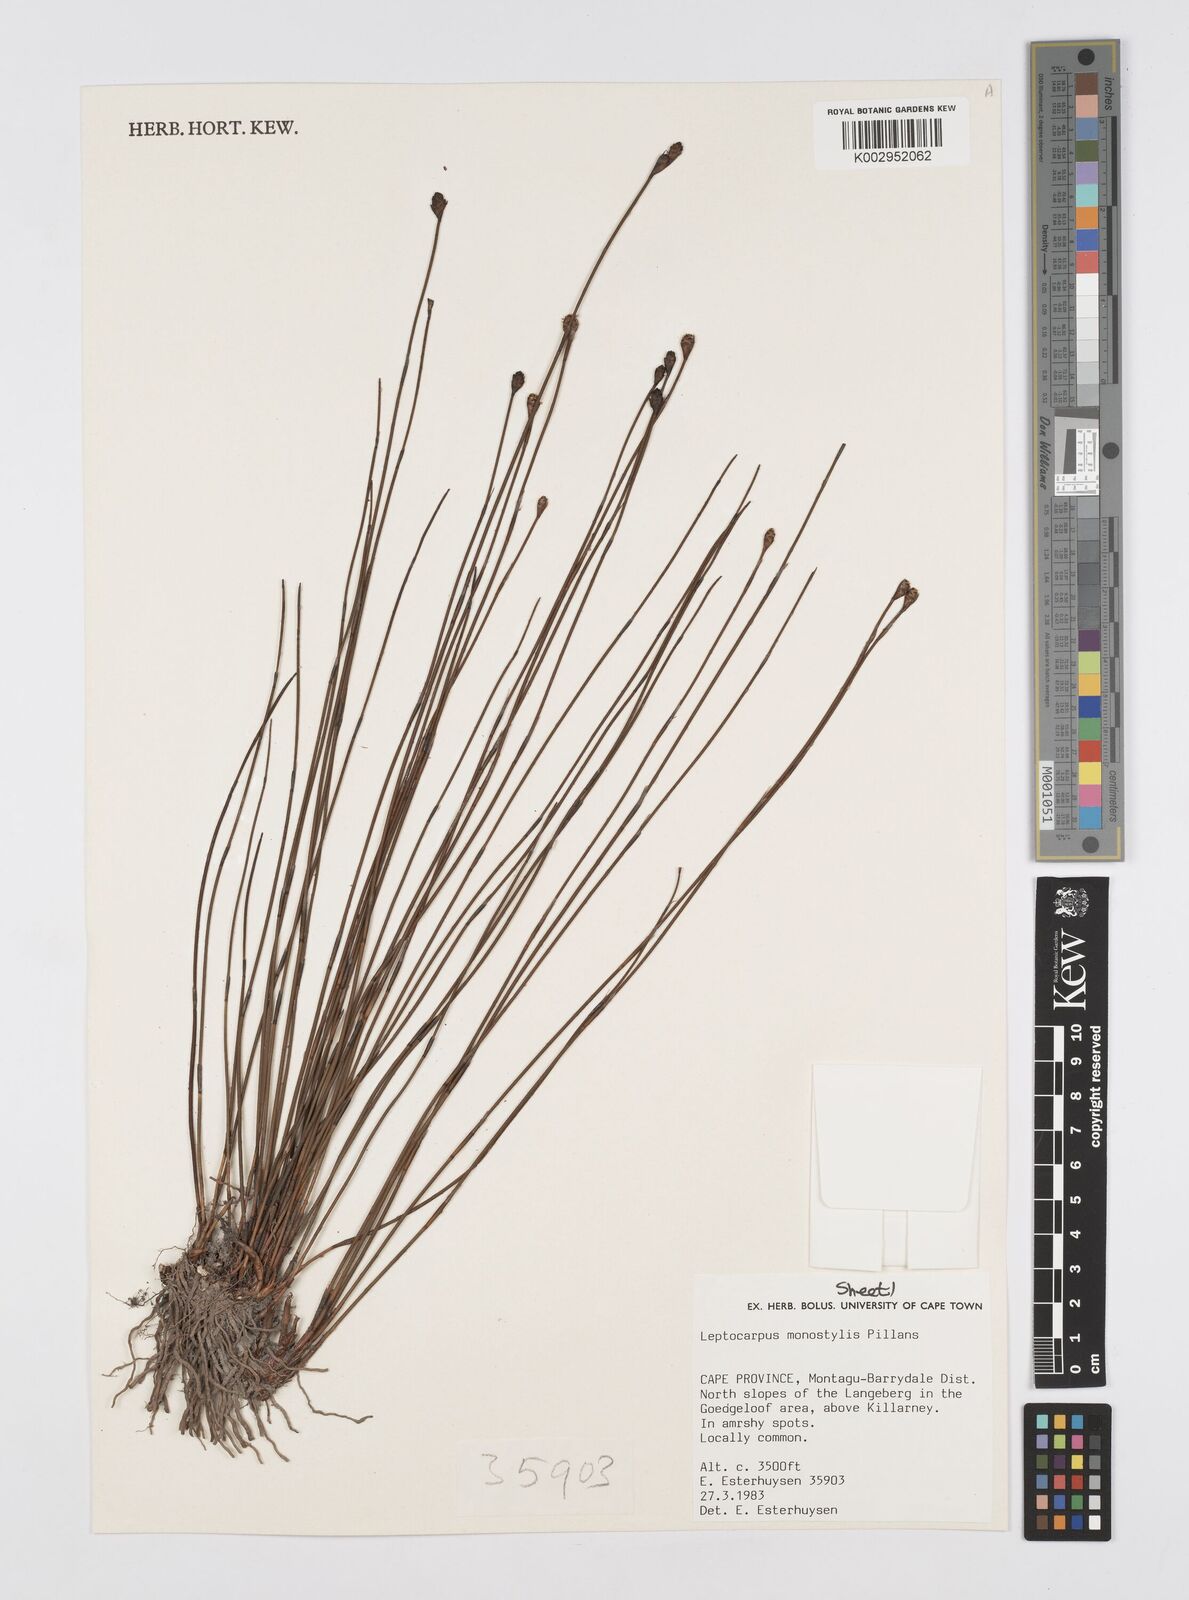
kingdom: Plantae
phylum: Tracheophyta
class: Liliopsida
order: Poales
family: Restionaceae
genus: Restio
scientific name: Restio monostylis
